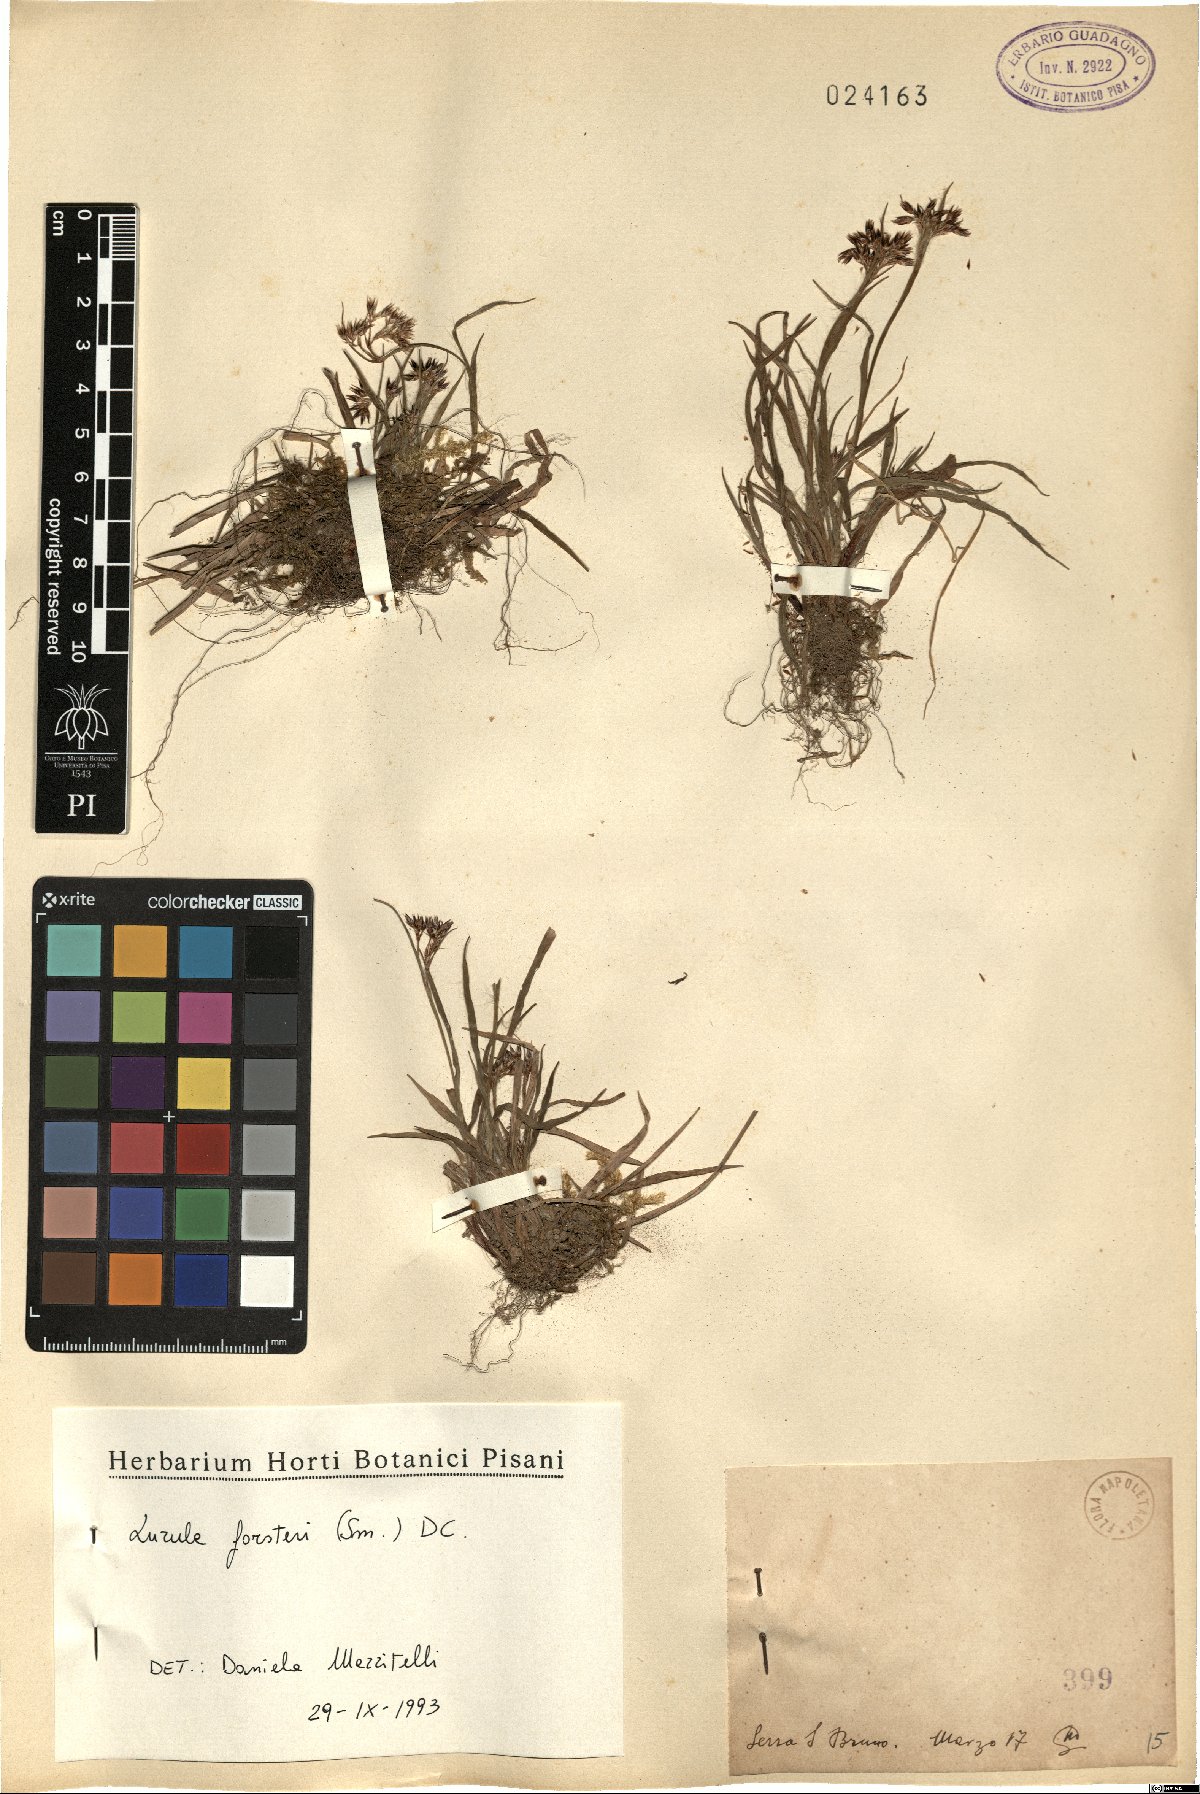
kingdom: Plantae
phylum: Tracheophyta
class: Liliopsida
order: Poales
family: Juncaceae
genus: Luzula
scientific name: Luzula forsteri
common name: Southern wood-rush
